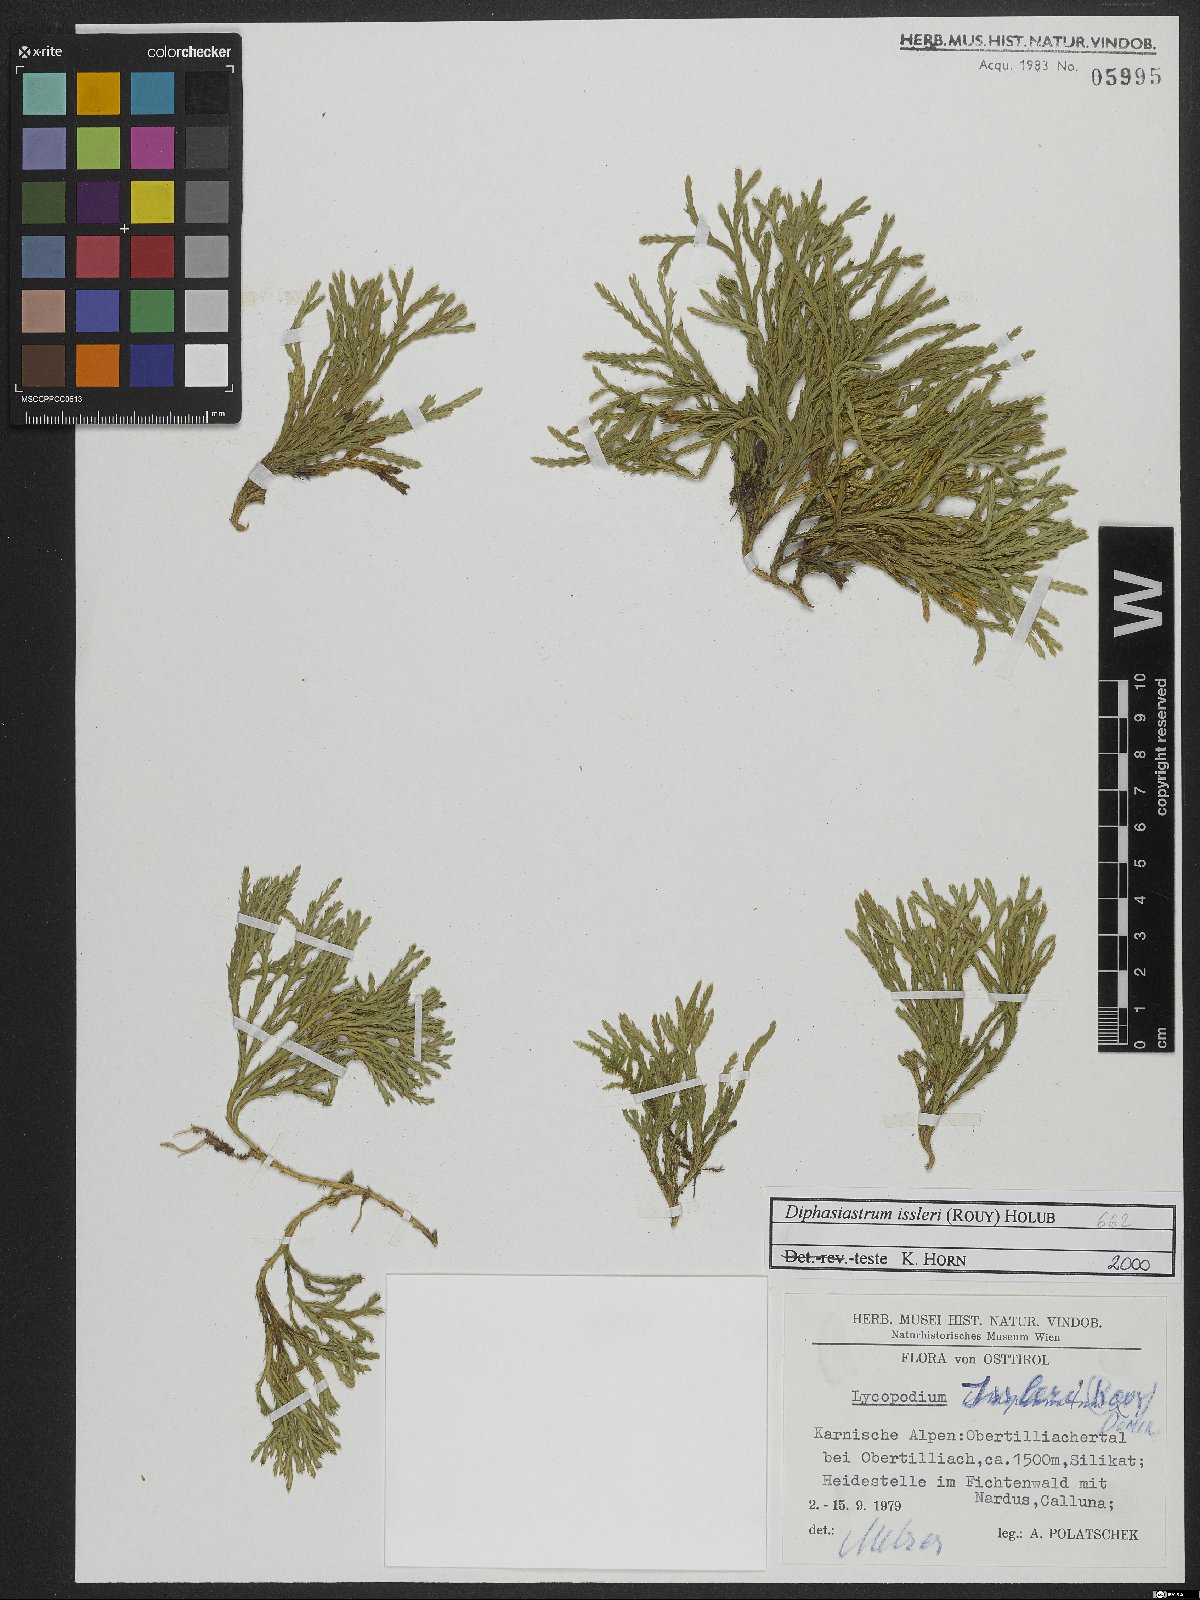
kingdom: Plantae
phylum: Tracheophyta
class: Lycopodiopsida
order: Lycopodiales
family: Lycopodiaceae
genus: Diphasiastrum
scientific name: Diphasiastrum issleri
